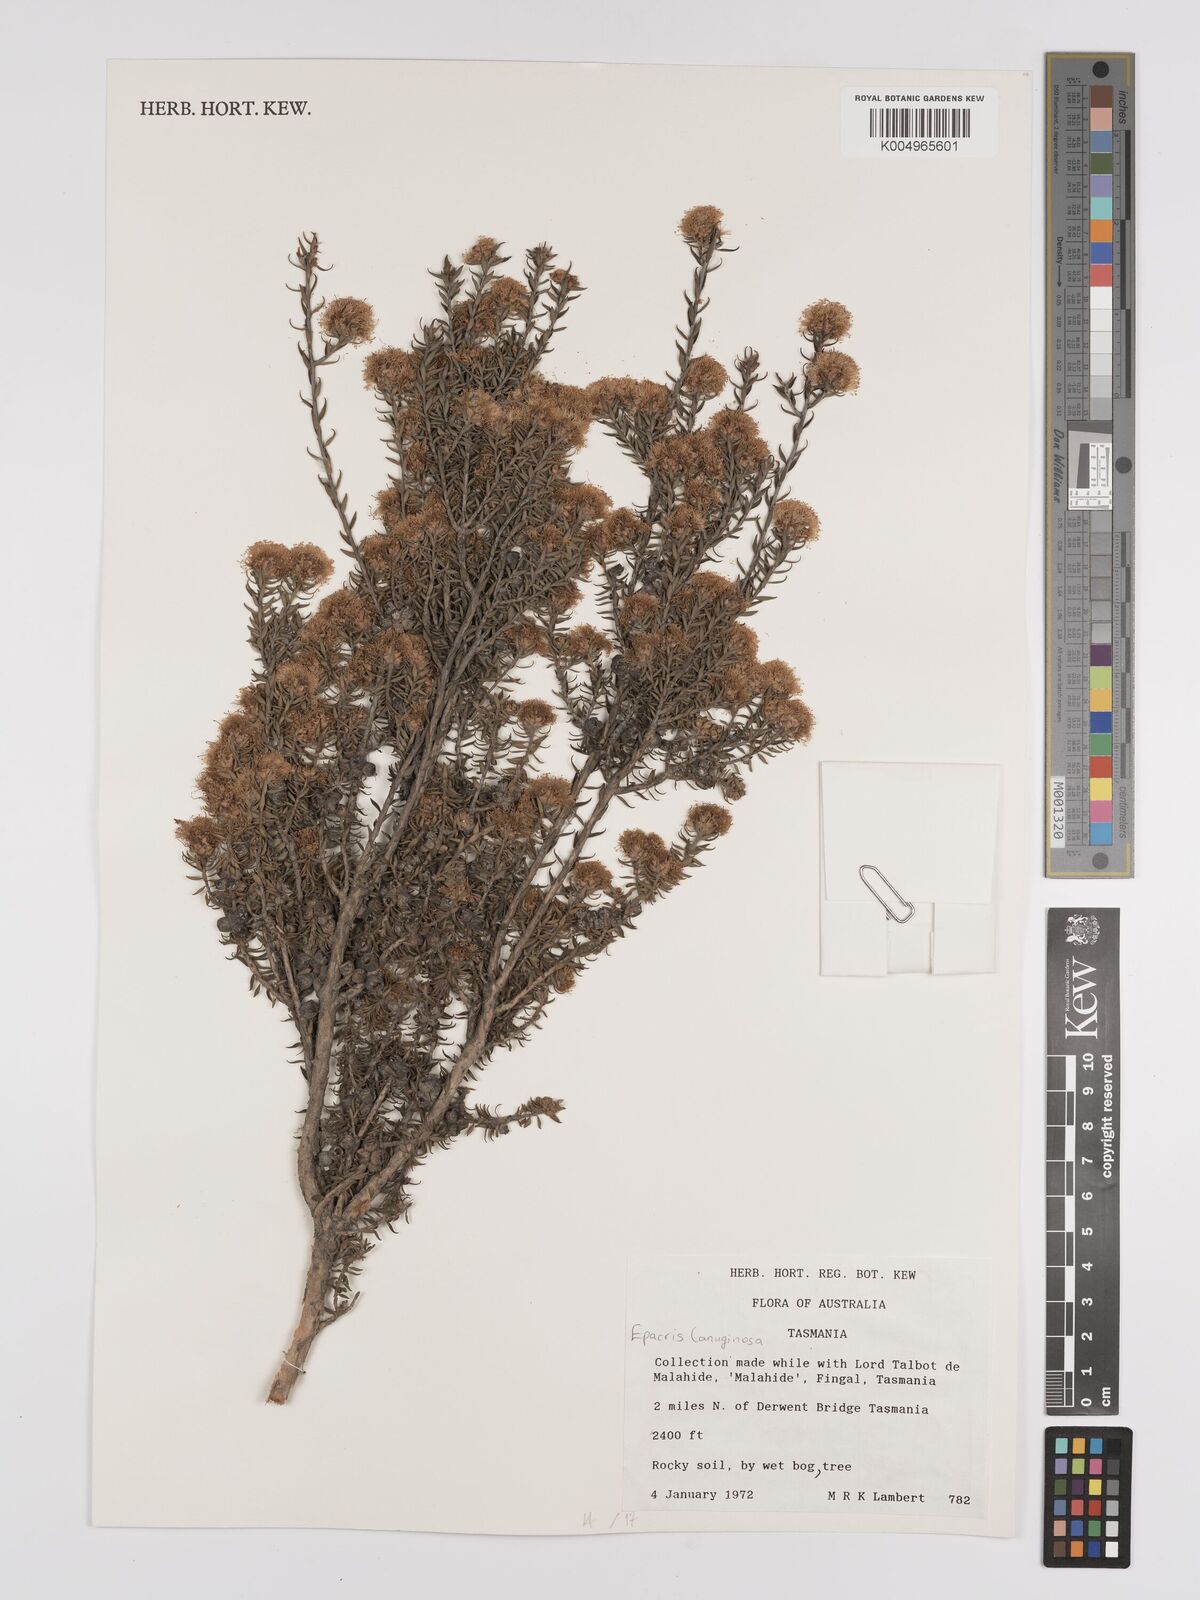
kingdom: Plantae
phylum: Tracheophyta
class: Magnoliopsida
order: Ericales
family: Ericaceae
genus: Epacris
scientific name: Epacris lanuginosa
